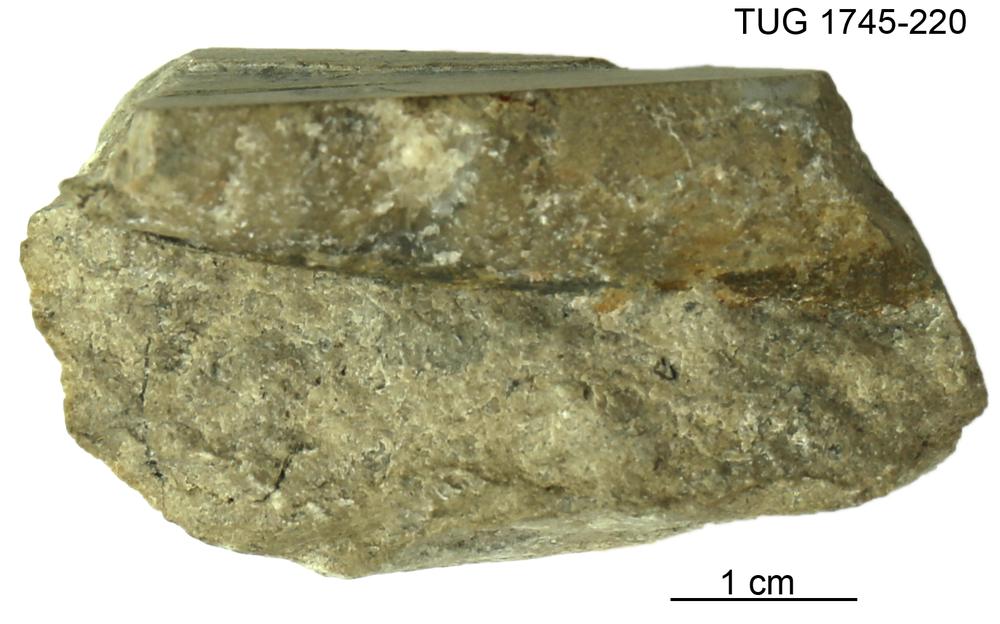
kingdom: Animalia
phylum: Mollusca
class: Cephalopoda
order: Orthocerida
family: Orthoceratidae
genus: Orthoceras
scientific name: Orthoceras regulare
